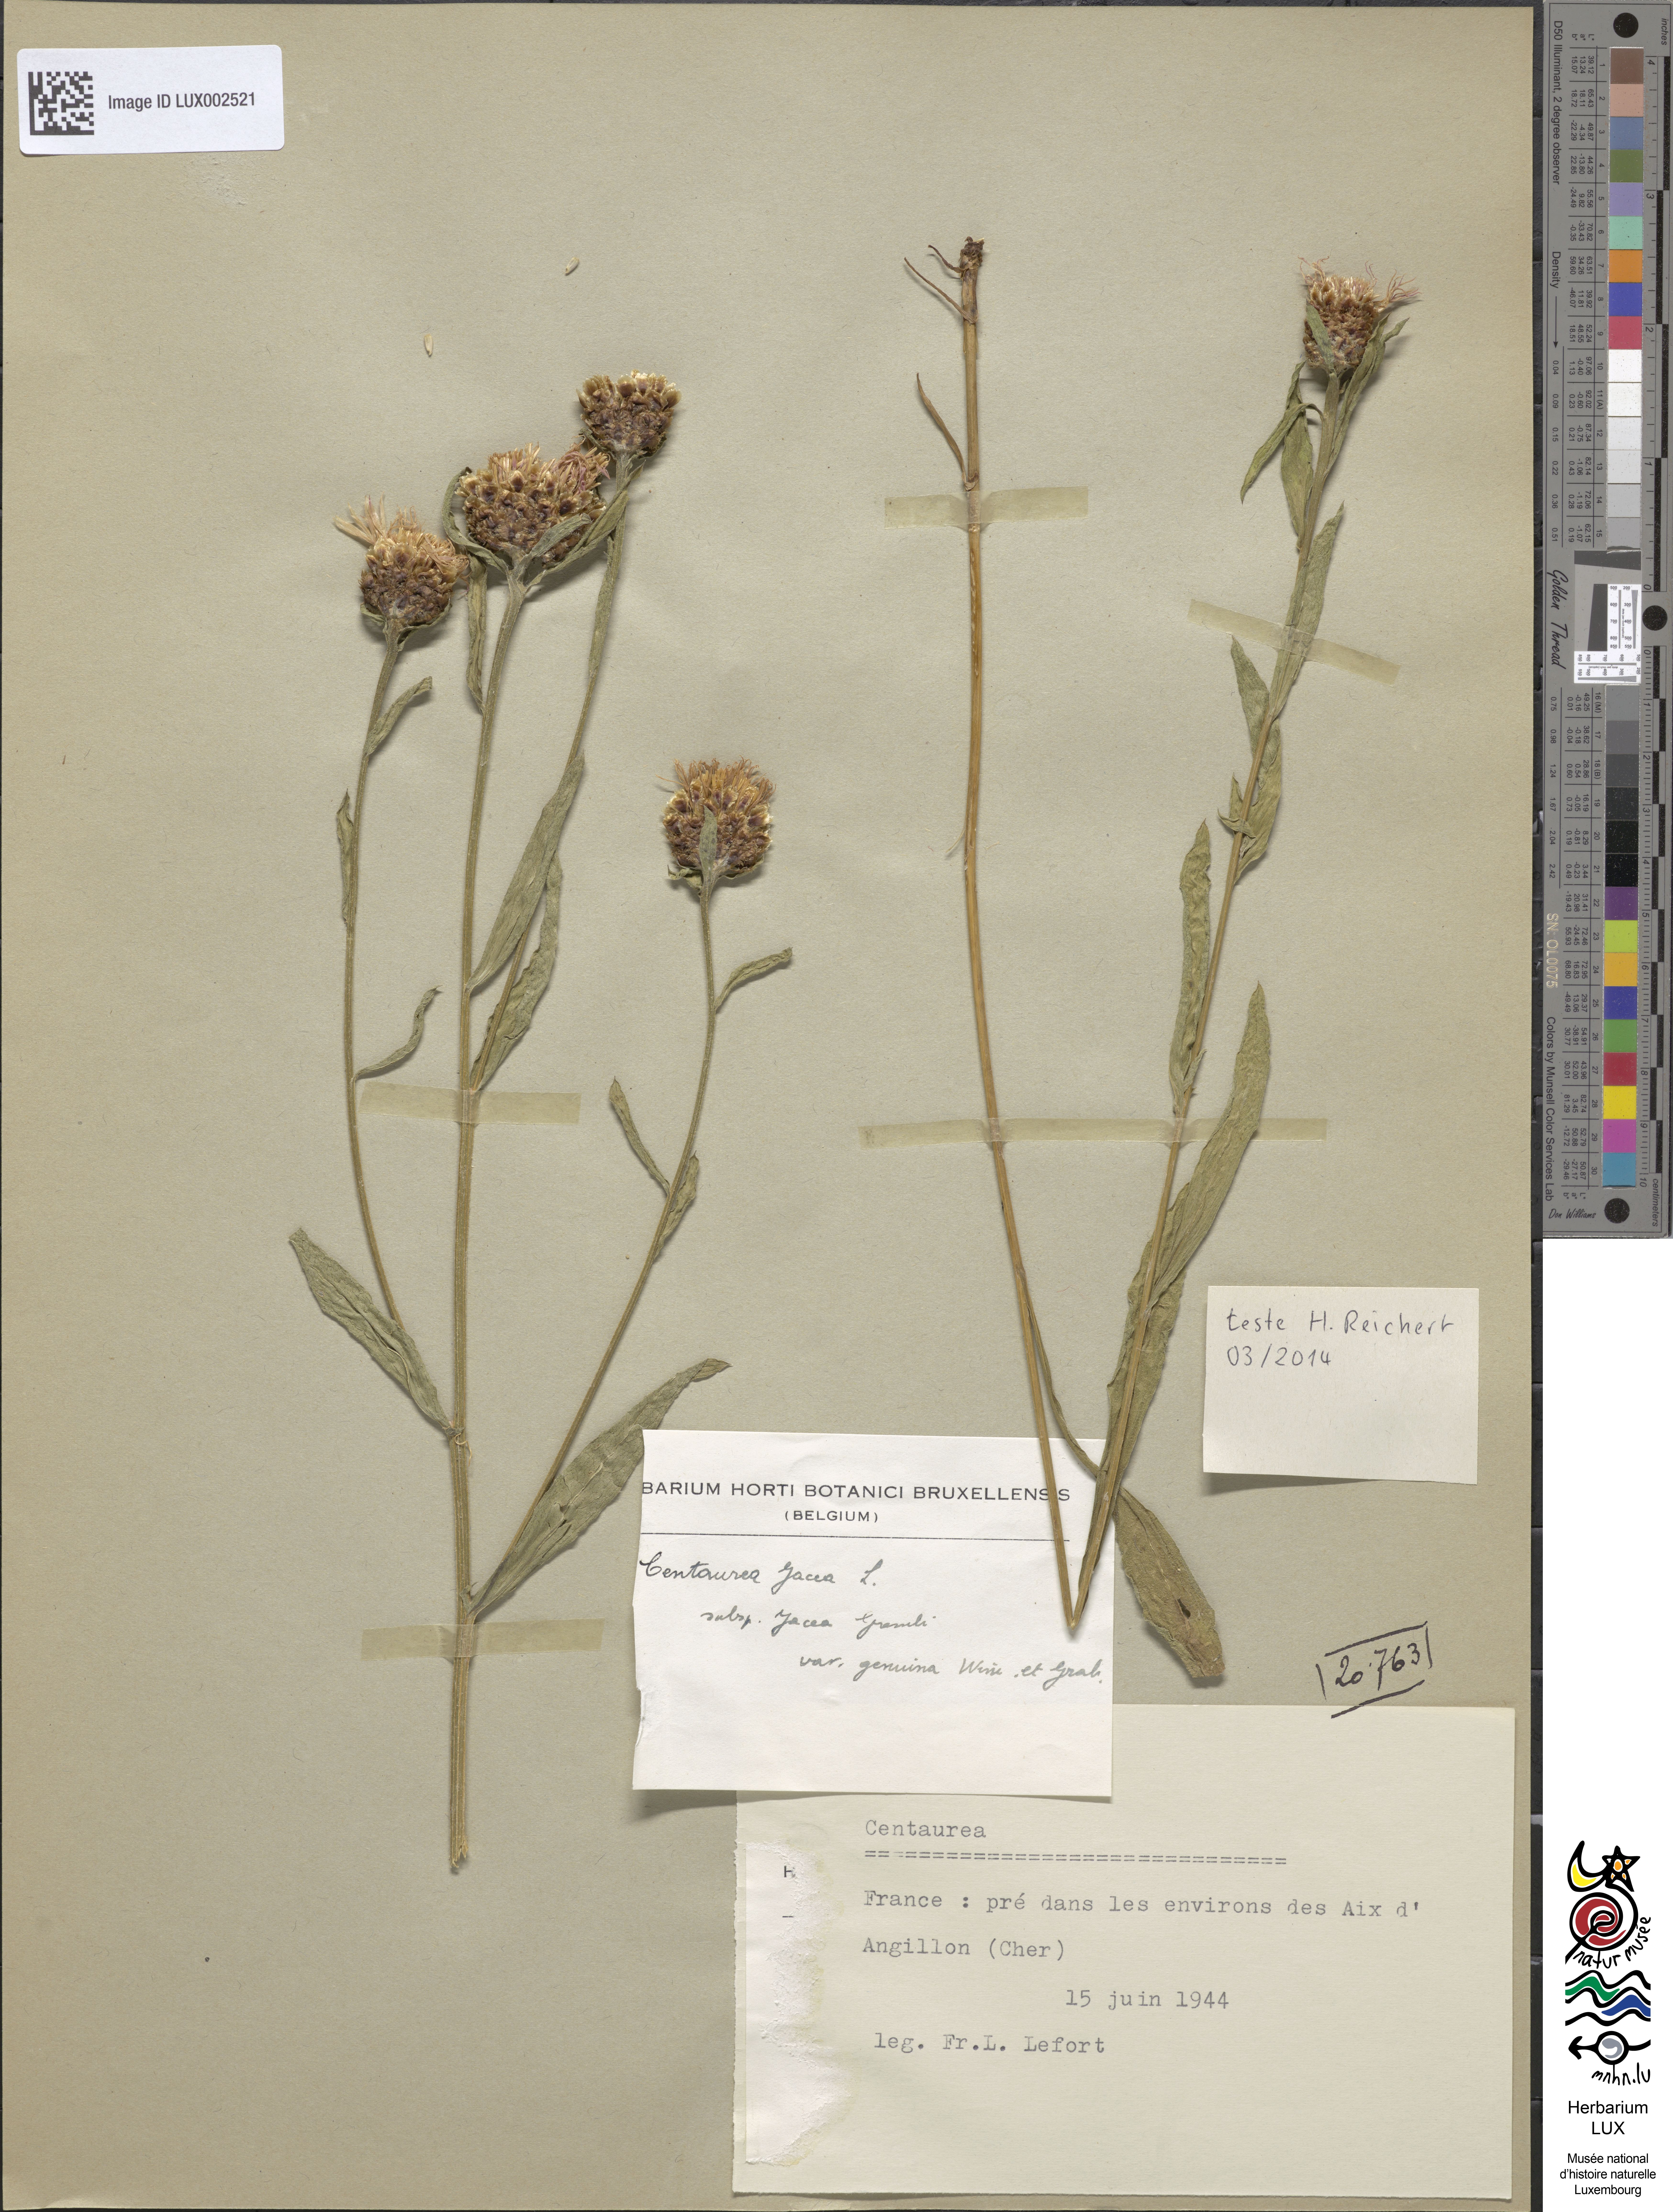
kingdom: Plantae
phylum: Tracheophyta
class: Magnoliopsida
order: Asterales
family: Asteraceae
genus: Centaurea
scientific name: Centaurea jacea
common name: Brown knapweed
